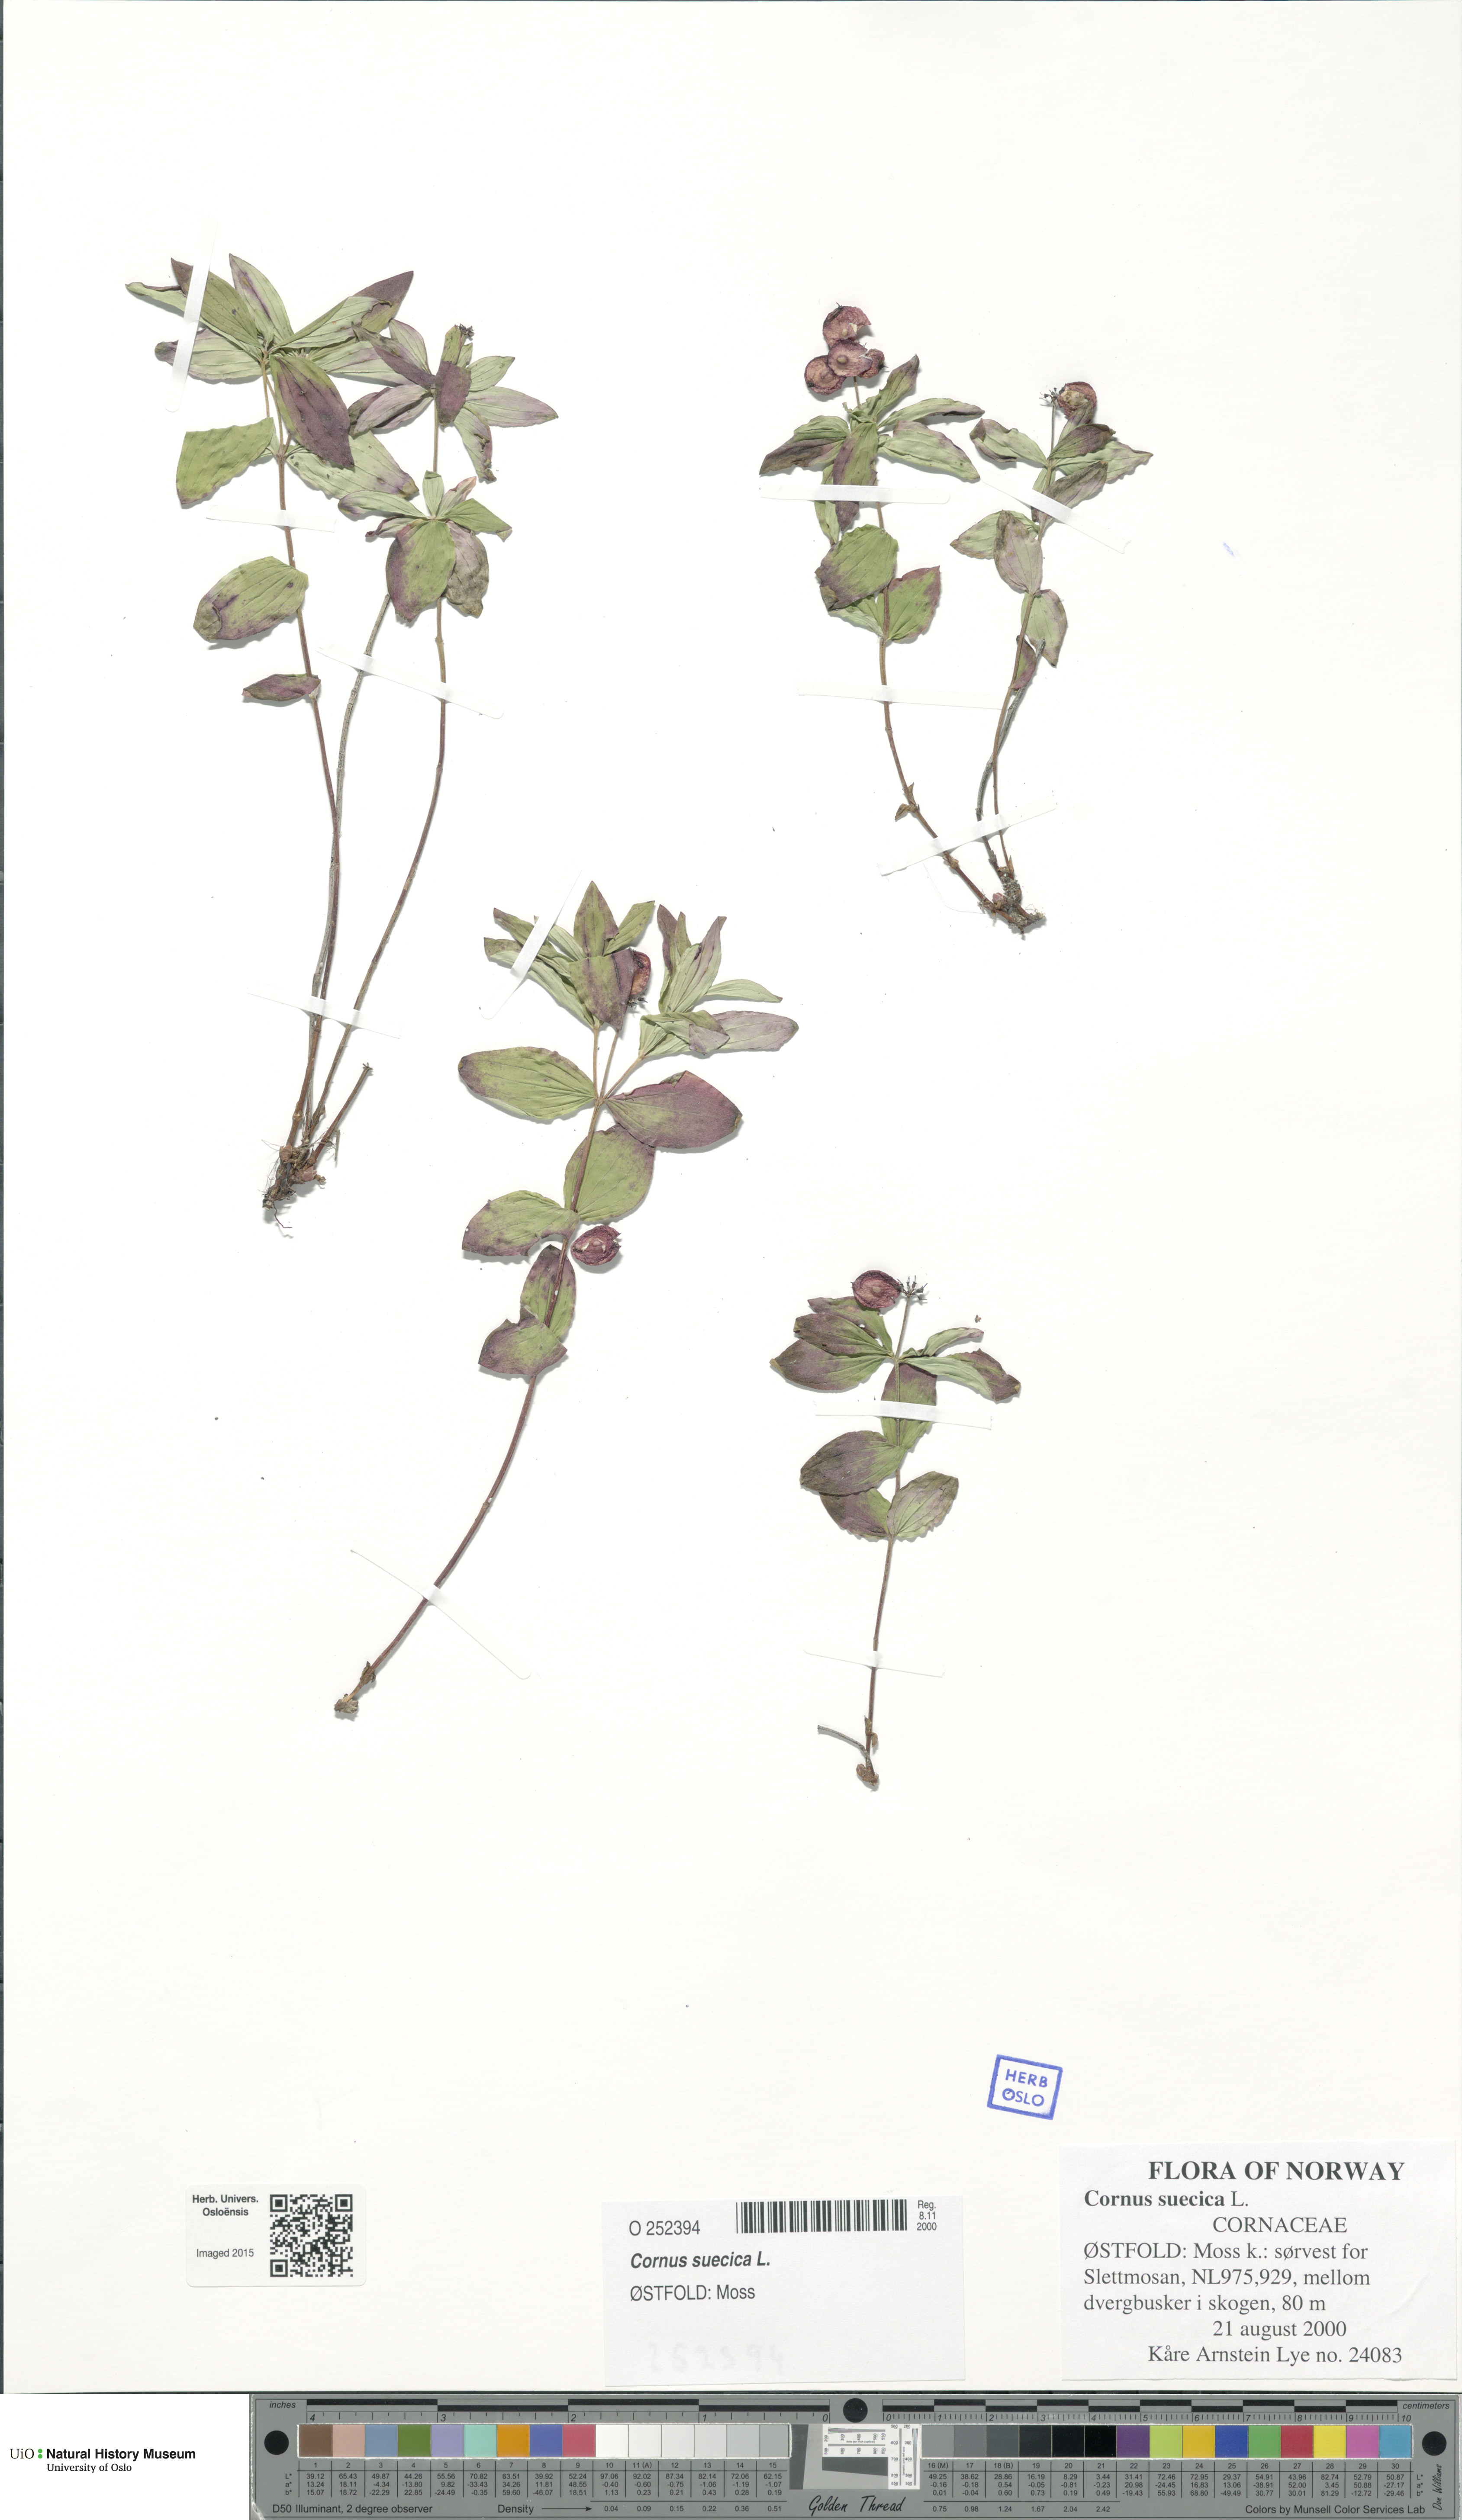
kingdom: Plantae
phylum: Tracheophyta
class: Magnoliopsida
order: Cornales
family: Cornaceae
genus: Cornus
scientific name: Cornus suecica
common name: Dwarf cornel
